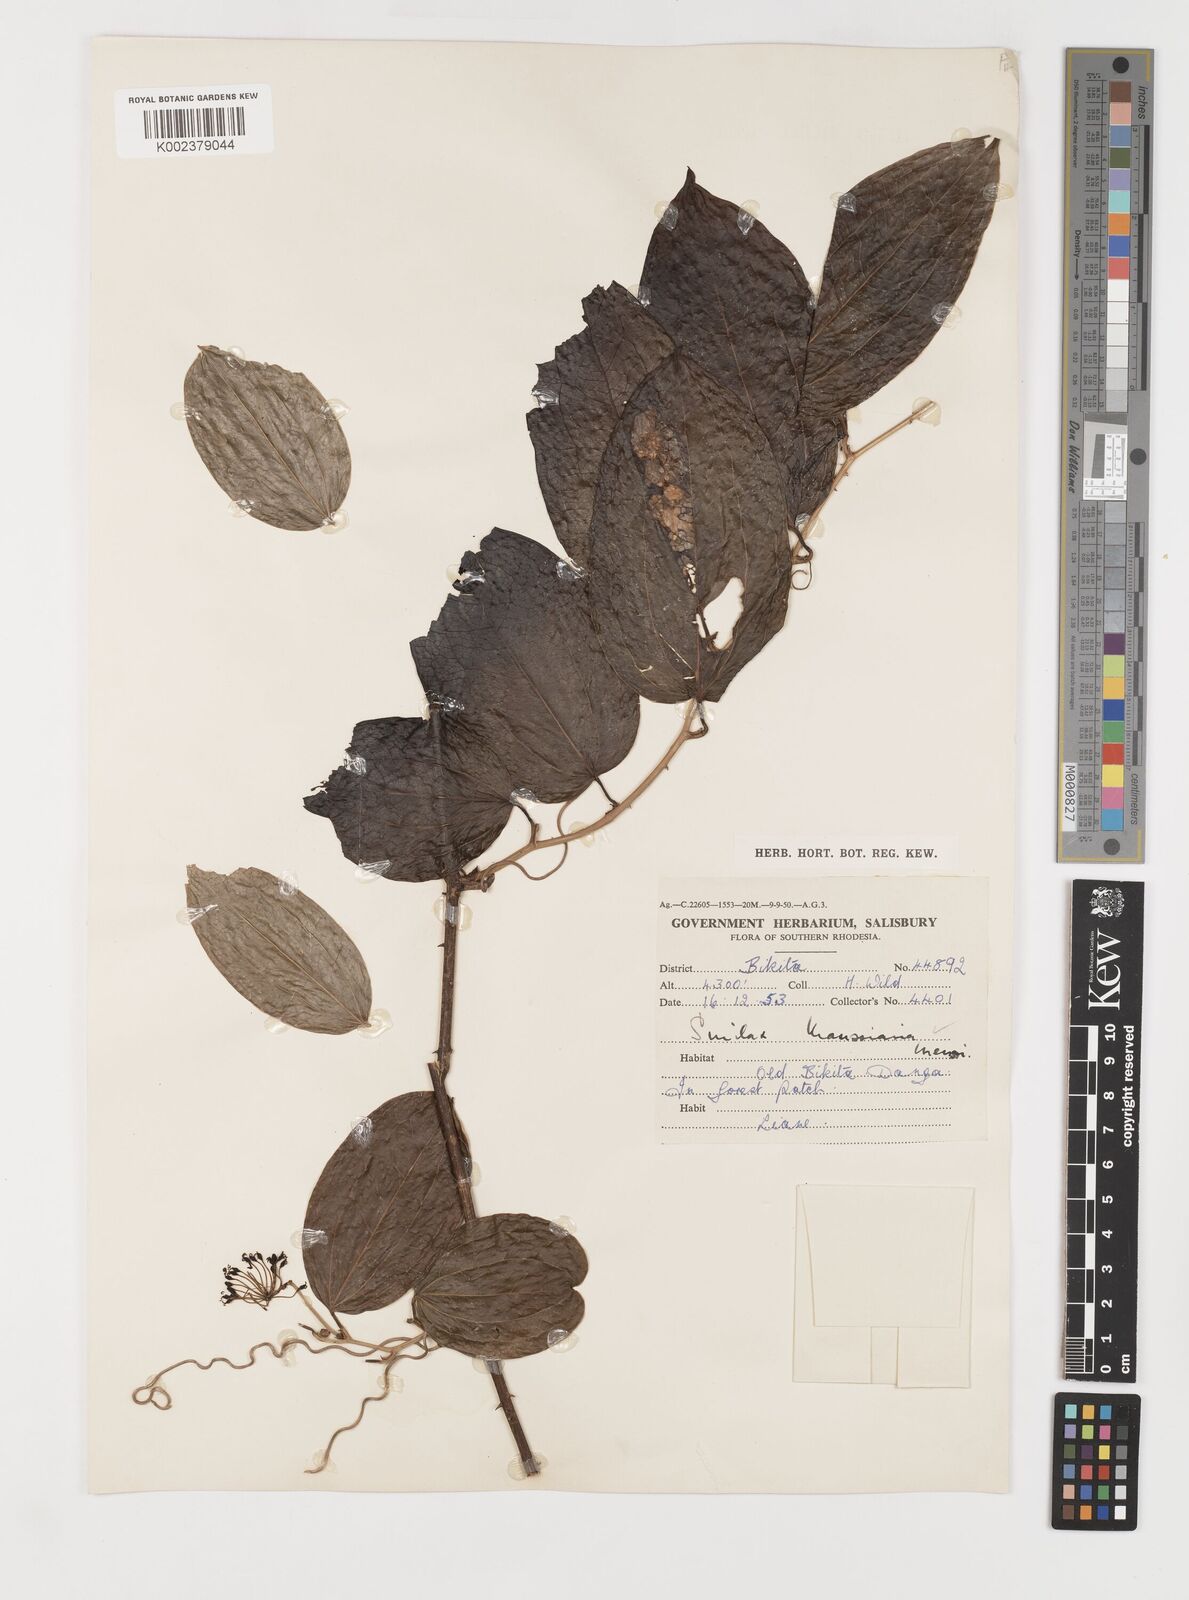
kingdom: Plantae
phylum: Tracheophyta
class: Liliopsida
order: Liliales
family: Smilacaceae
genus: Smilax
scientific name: Smilax anceps
